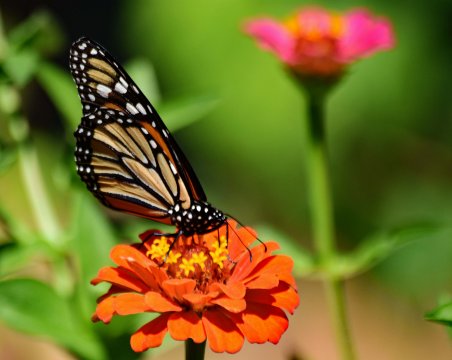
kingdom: Animalia
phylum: Arthropoda
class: Insecta
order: Lepidoptera
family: Nymphalidae
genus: Danaus
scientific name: Danaus plexippus
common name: Monarch
